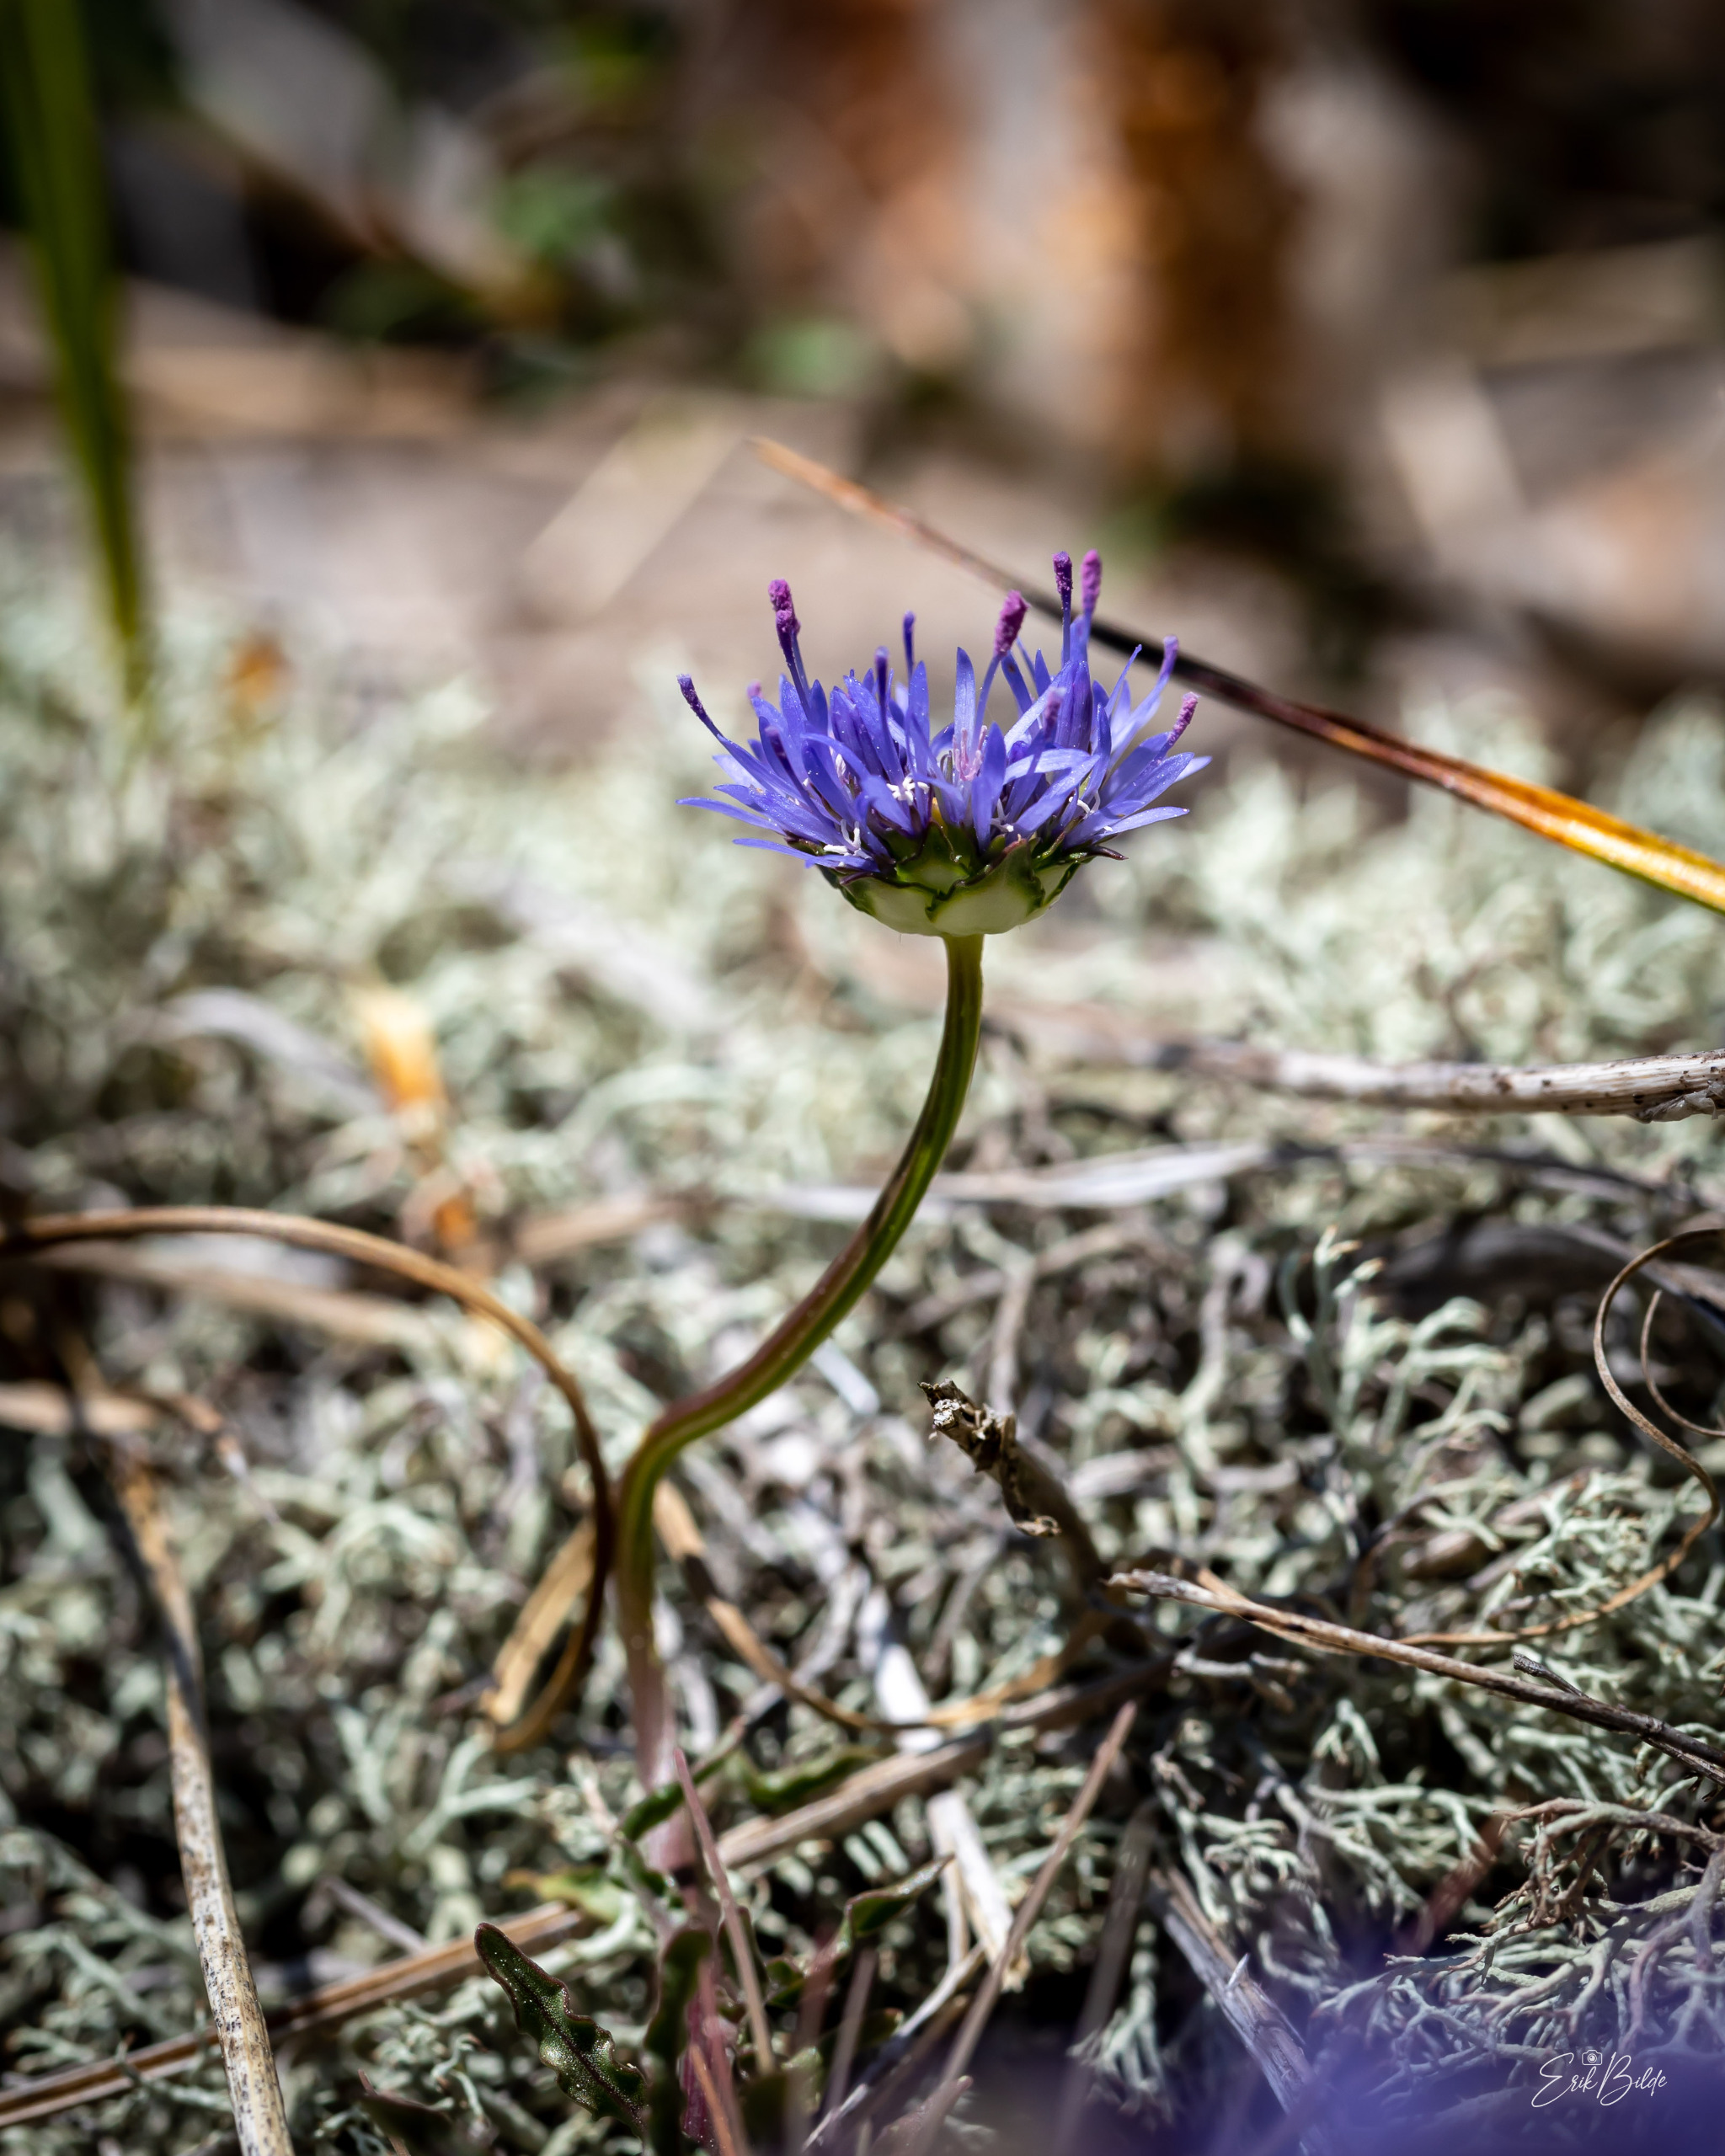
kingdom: Plantae
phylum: Tracheophyta
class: Magnoliopsida
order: Asterales
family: Campanulaceae
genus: Jasione
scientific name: Jasione montana
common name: Blåmunke
